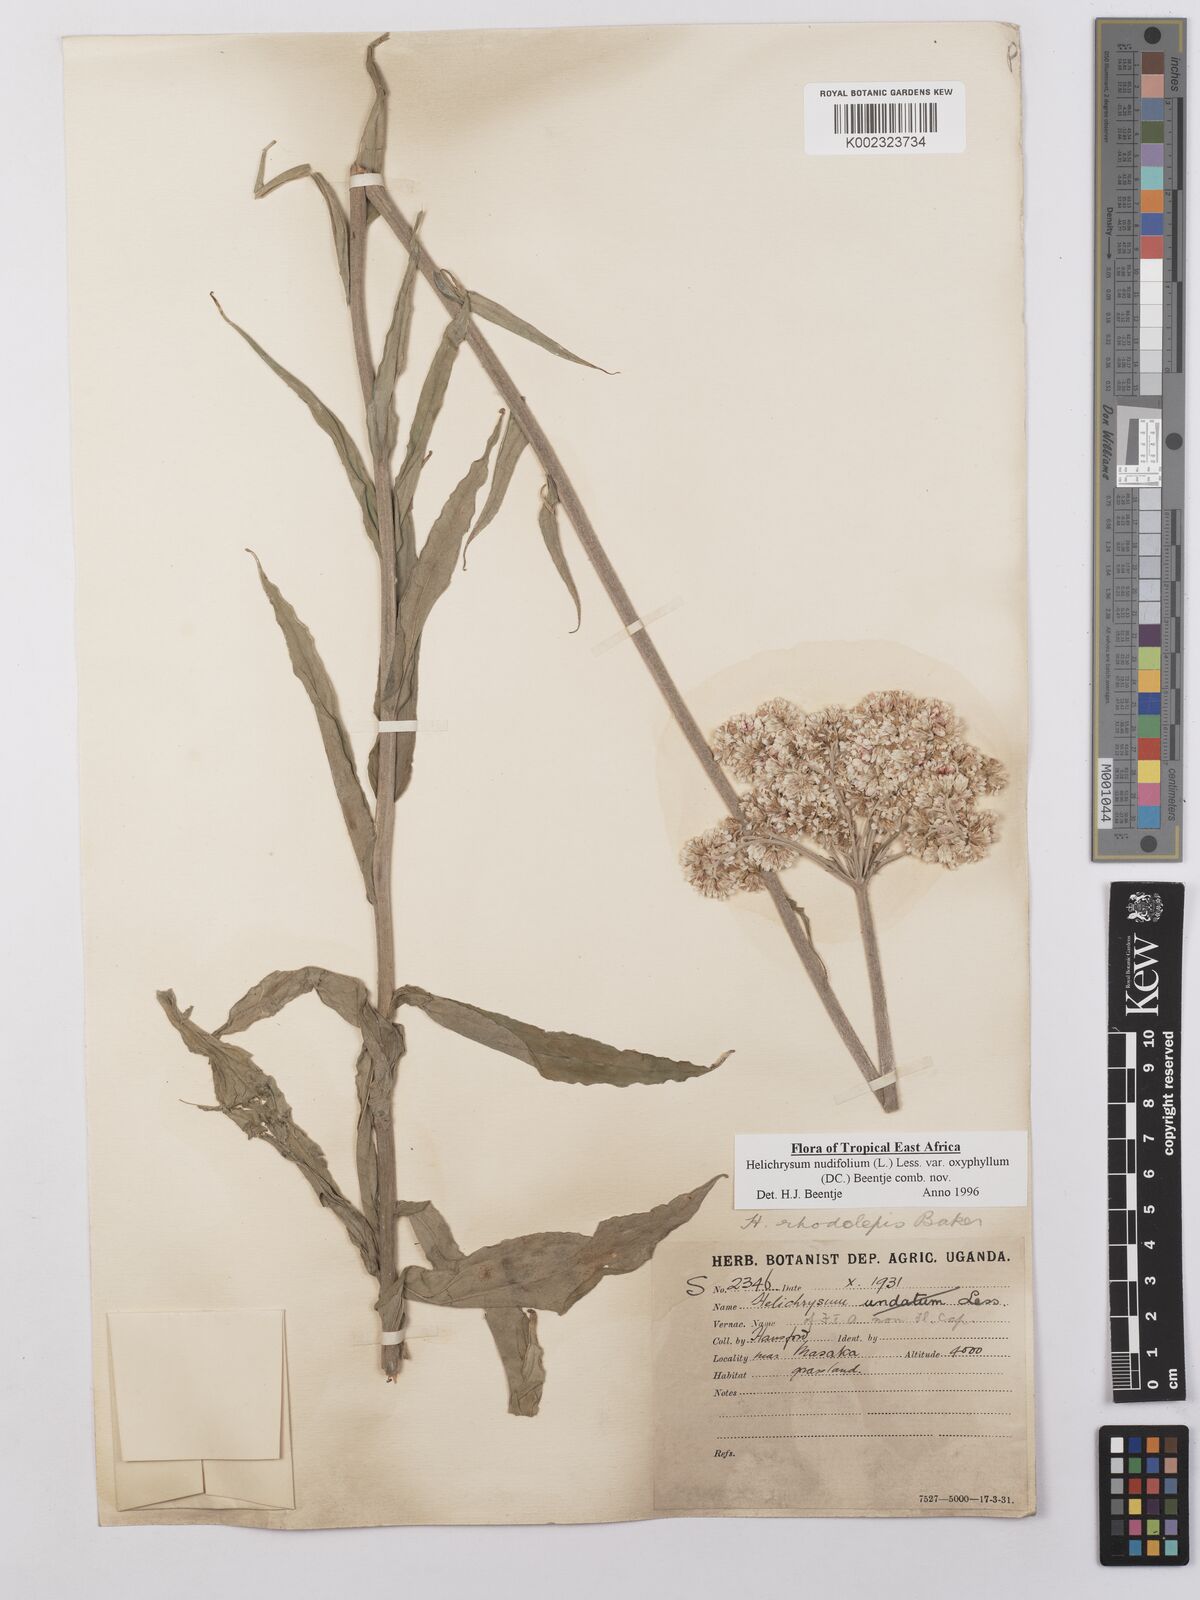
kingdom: Plantae
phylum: Tracheophyta
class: Magnoliopsida
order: Asterales
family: Asteraceae
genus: Helichrysum
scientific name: Helichrysum nudifolium
